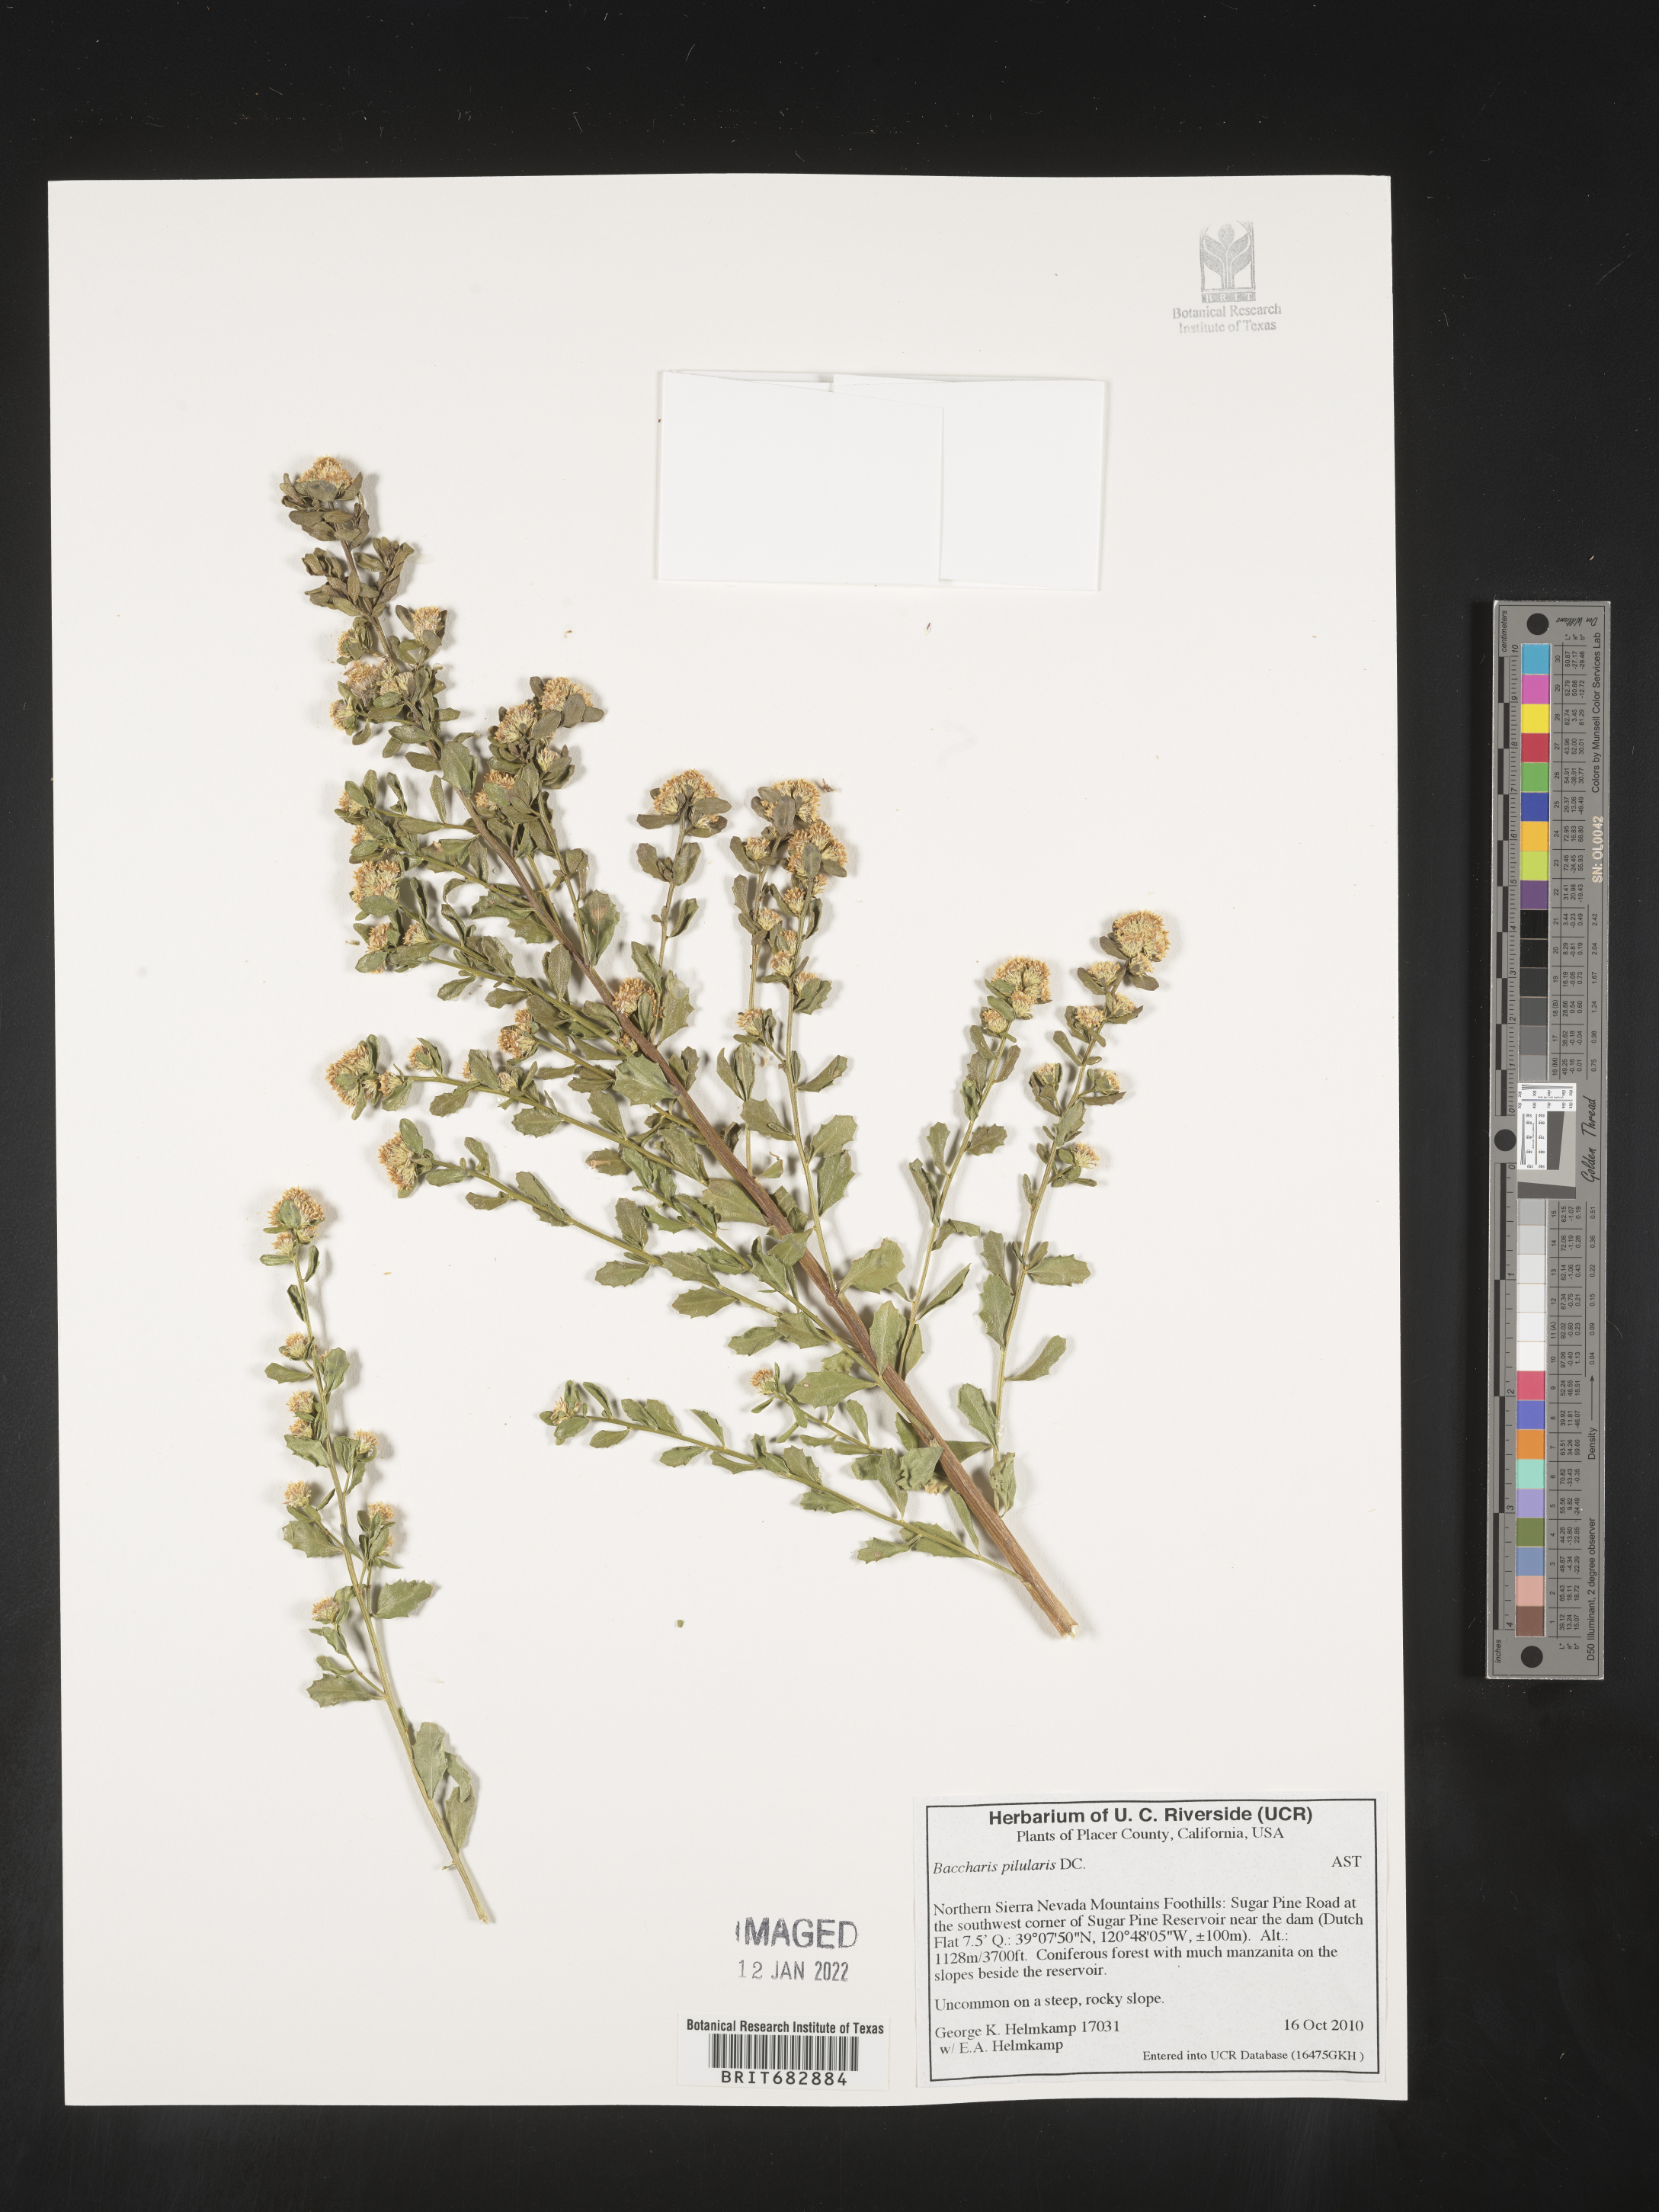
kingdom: Plantae
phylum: Tracheophyta
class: Magnoliopsida
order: Asterales
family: Asteraceae
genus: Baccharis
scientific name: Baccharis pilularis
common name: Coyotebrush
